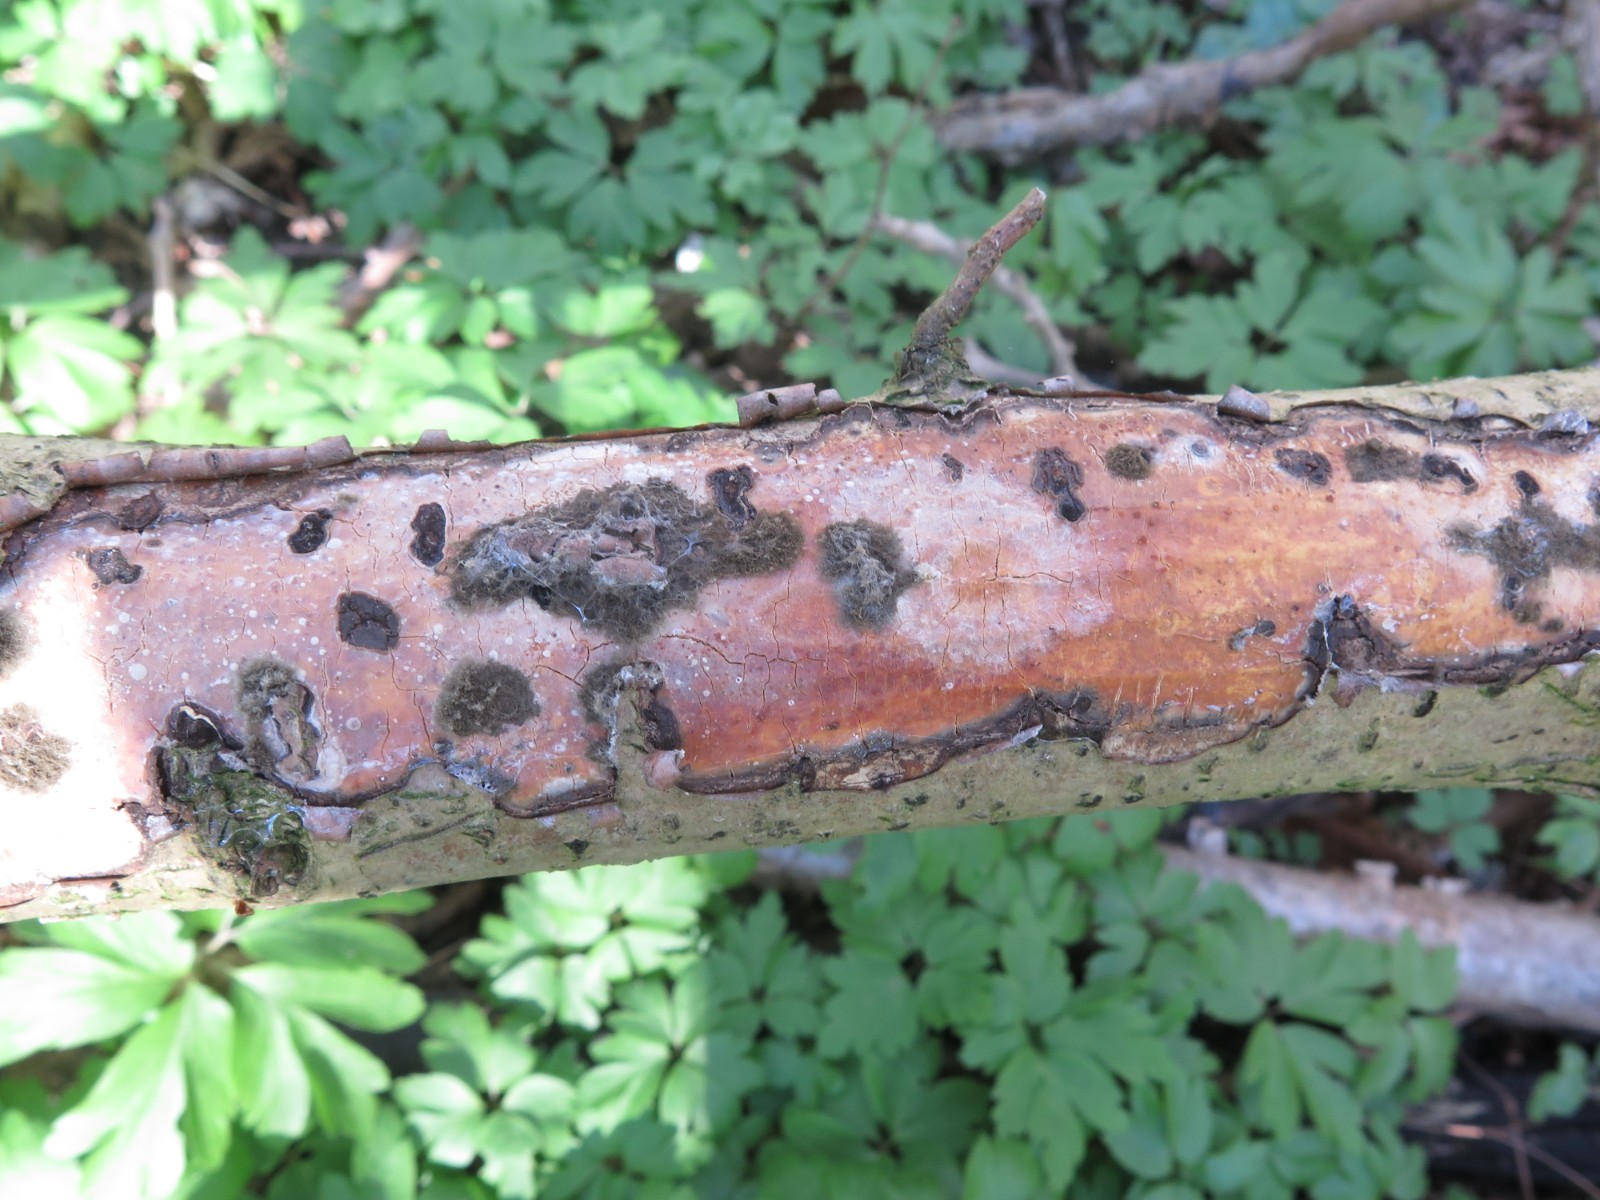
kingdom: Fungi
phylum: Basidiomycota
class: Agaricomycetes
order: Corticiales
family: Vuilleminiaceae
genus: Vuilleminia
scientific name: Vuilleminia coryli
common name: hassel-barksprænger
